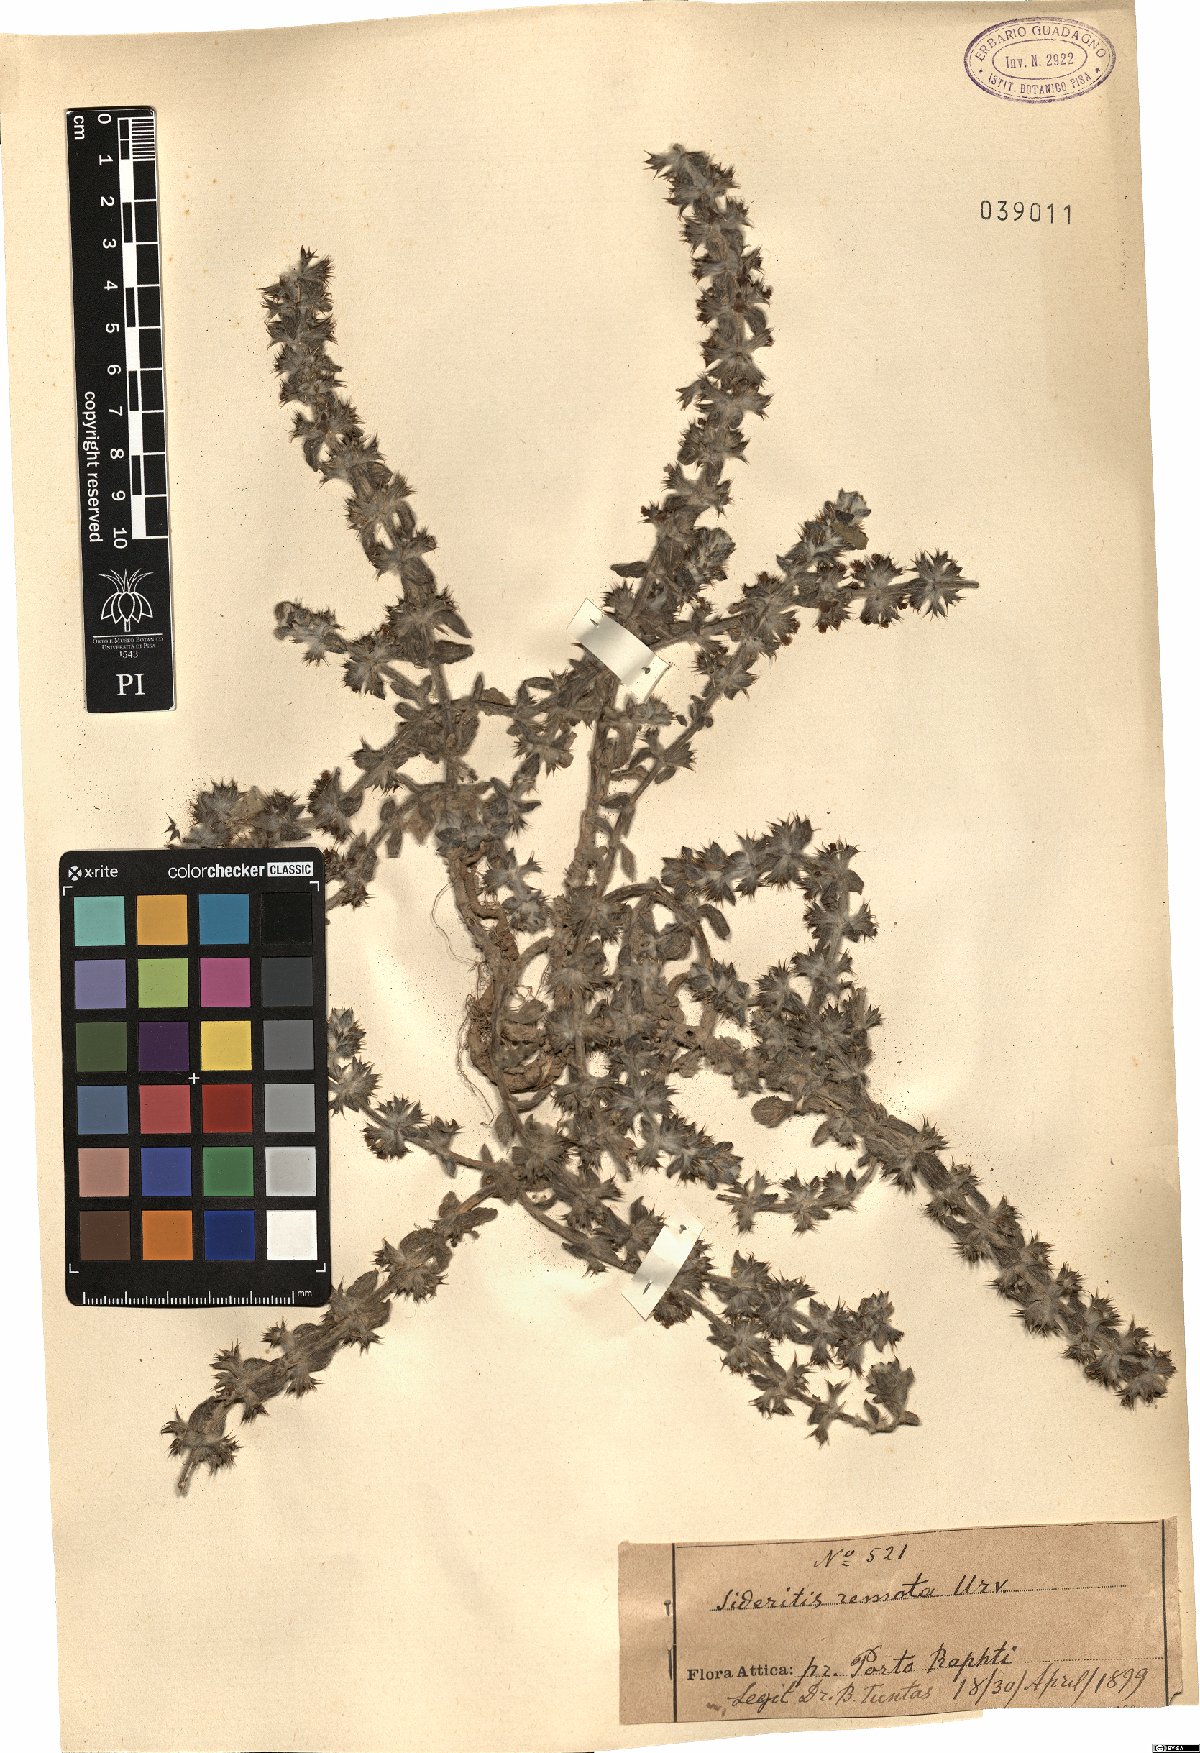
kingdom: Plantae
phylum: Tracheophyta
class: Magnoliopsida
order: Lamiales
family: Lamiaceae
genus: Sideritis
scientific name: Sideritis montana
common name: Mountain ironwort
